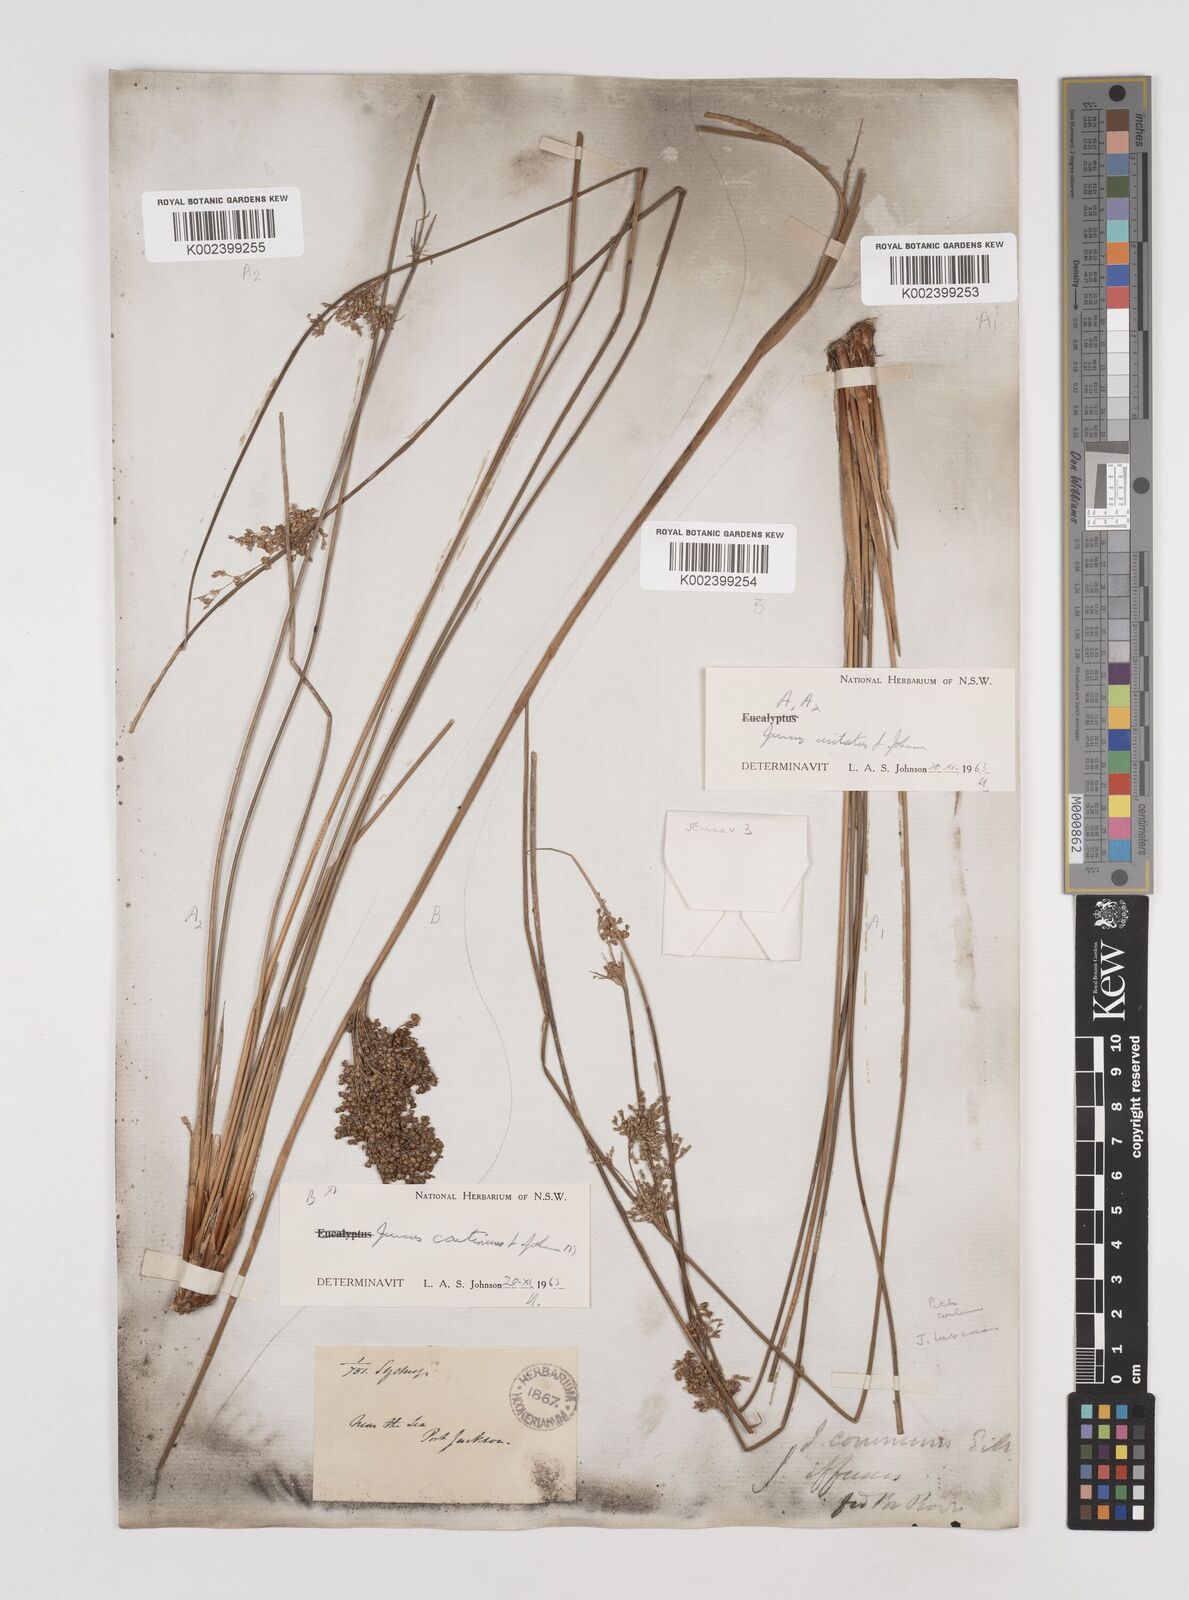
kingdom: Plantae
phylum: Tracheophyta
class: Liliopsida
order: Poales
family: Juncaceae
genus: Juncus
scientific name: Juncus usitatus
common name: Rush
